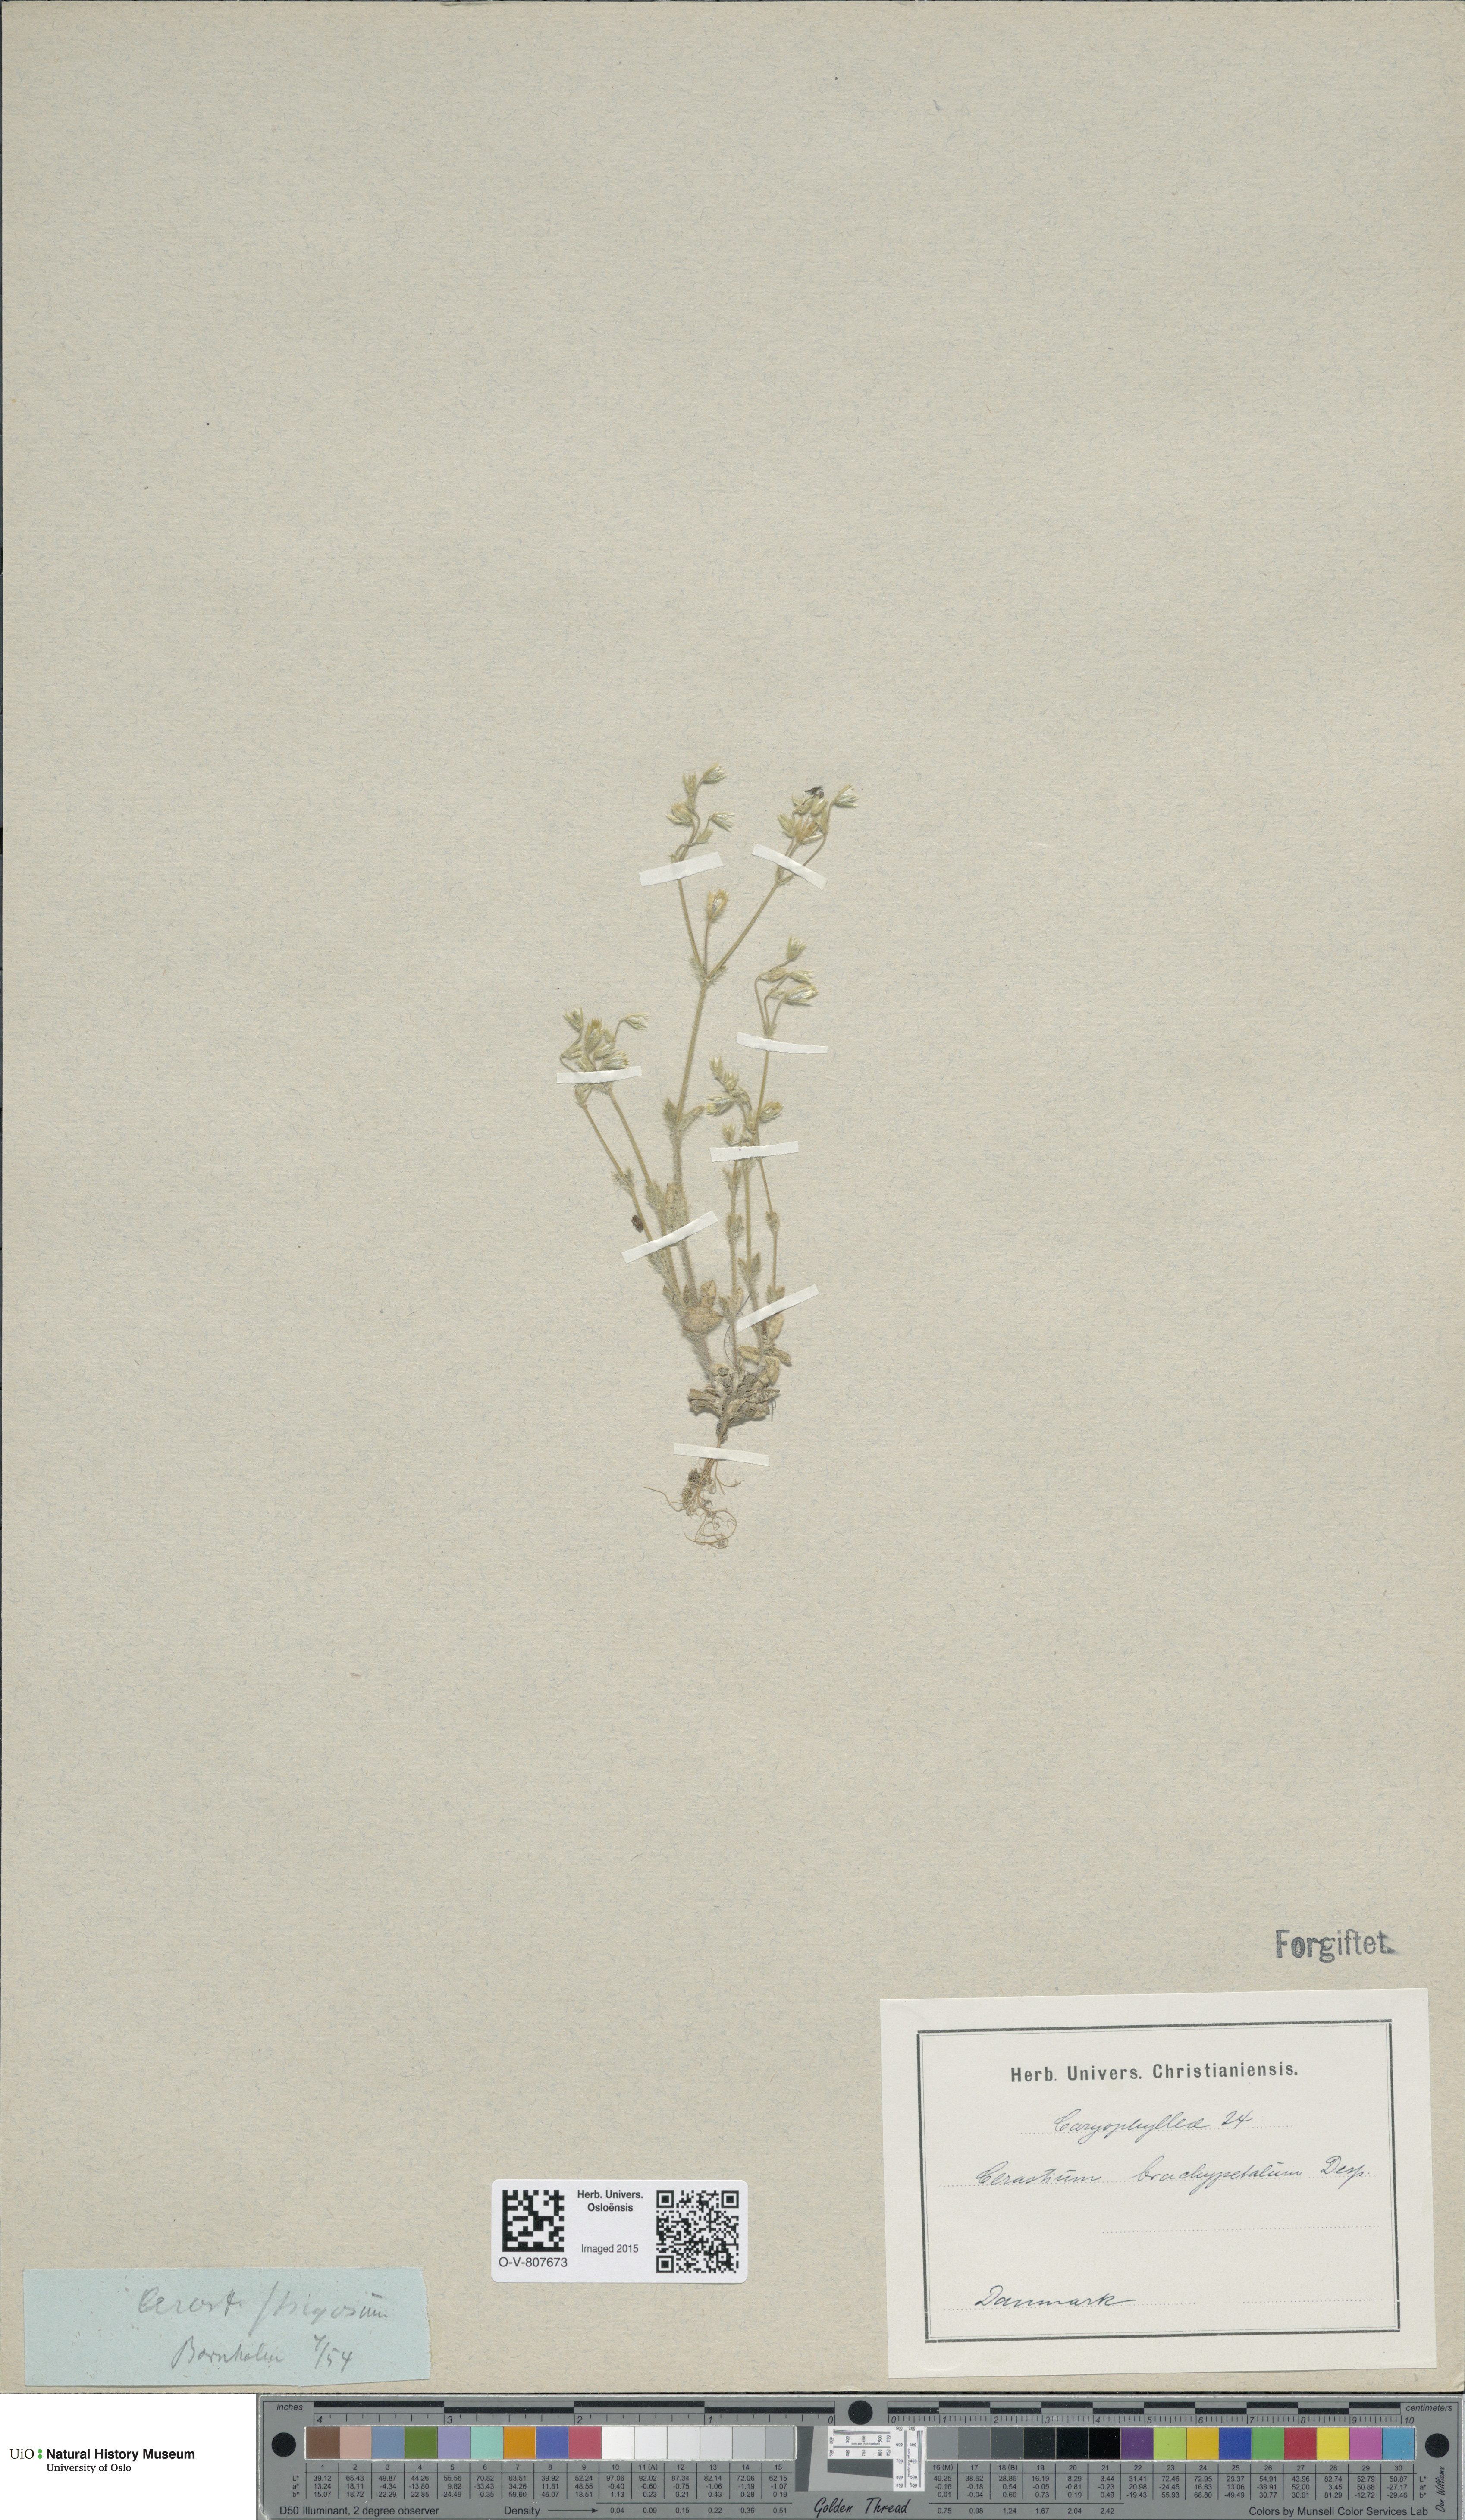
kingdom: Plantae
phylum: Tracheophyta
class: Magnoliopsida
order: Caryophyllales
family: Caryophyllaceae
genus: Cerastium
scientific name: Cerastium brachypetalum
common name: Grey mouse-ear
